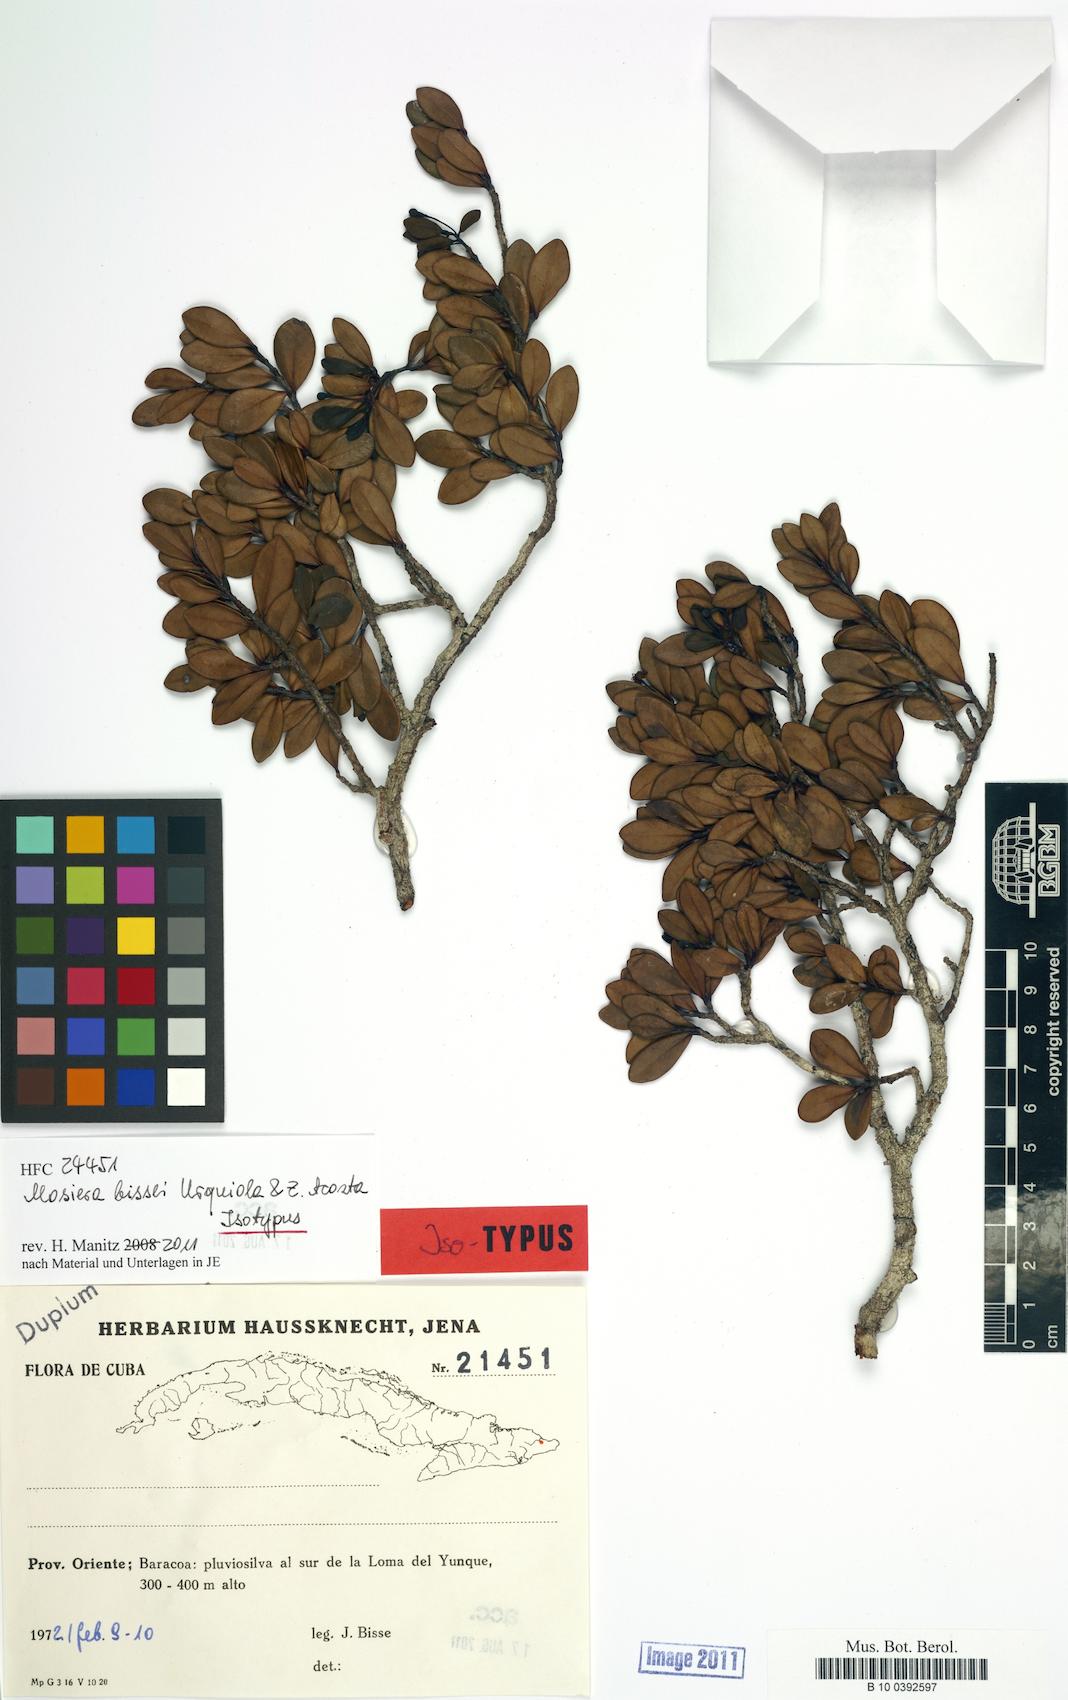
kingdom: Plantae
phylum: Tracheophyta
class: Magnoliopsida
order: Myrtales
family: Myrtaceae
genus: Mosiera
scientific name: Mosiera bissei
